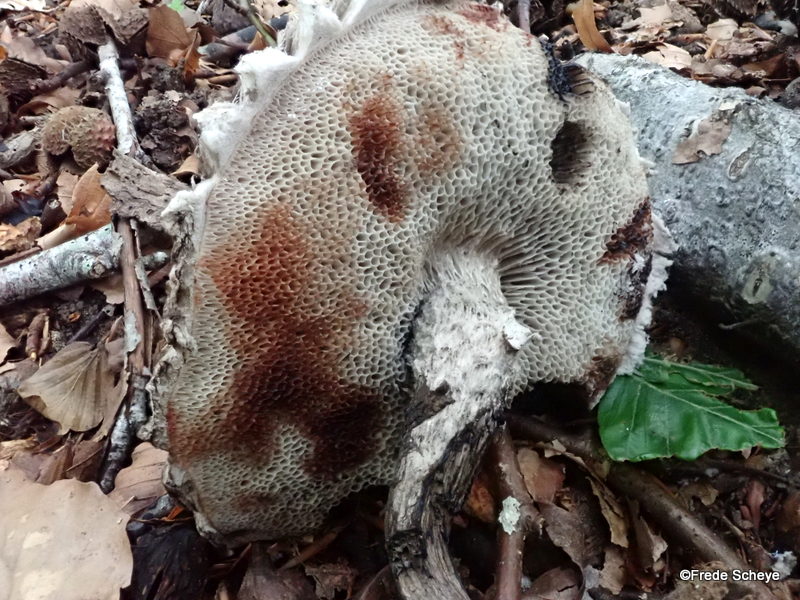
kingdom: Fungi
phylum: Basidiomycota
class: Agaricomycetes
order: Boletales
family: Boletaceae
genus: Strobilomyces
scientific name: Strobilomyces strobilaceus
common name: koglerørhat
